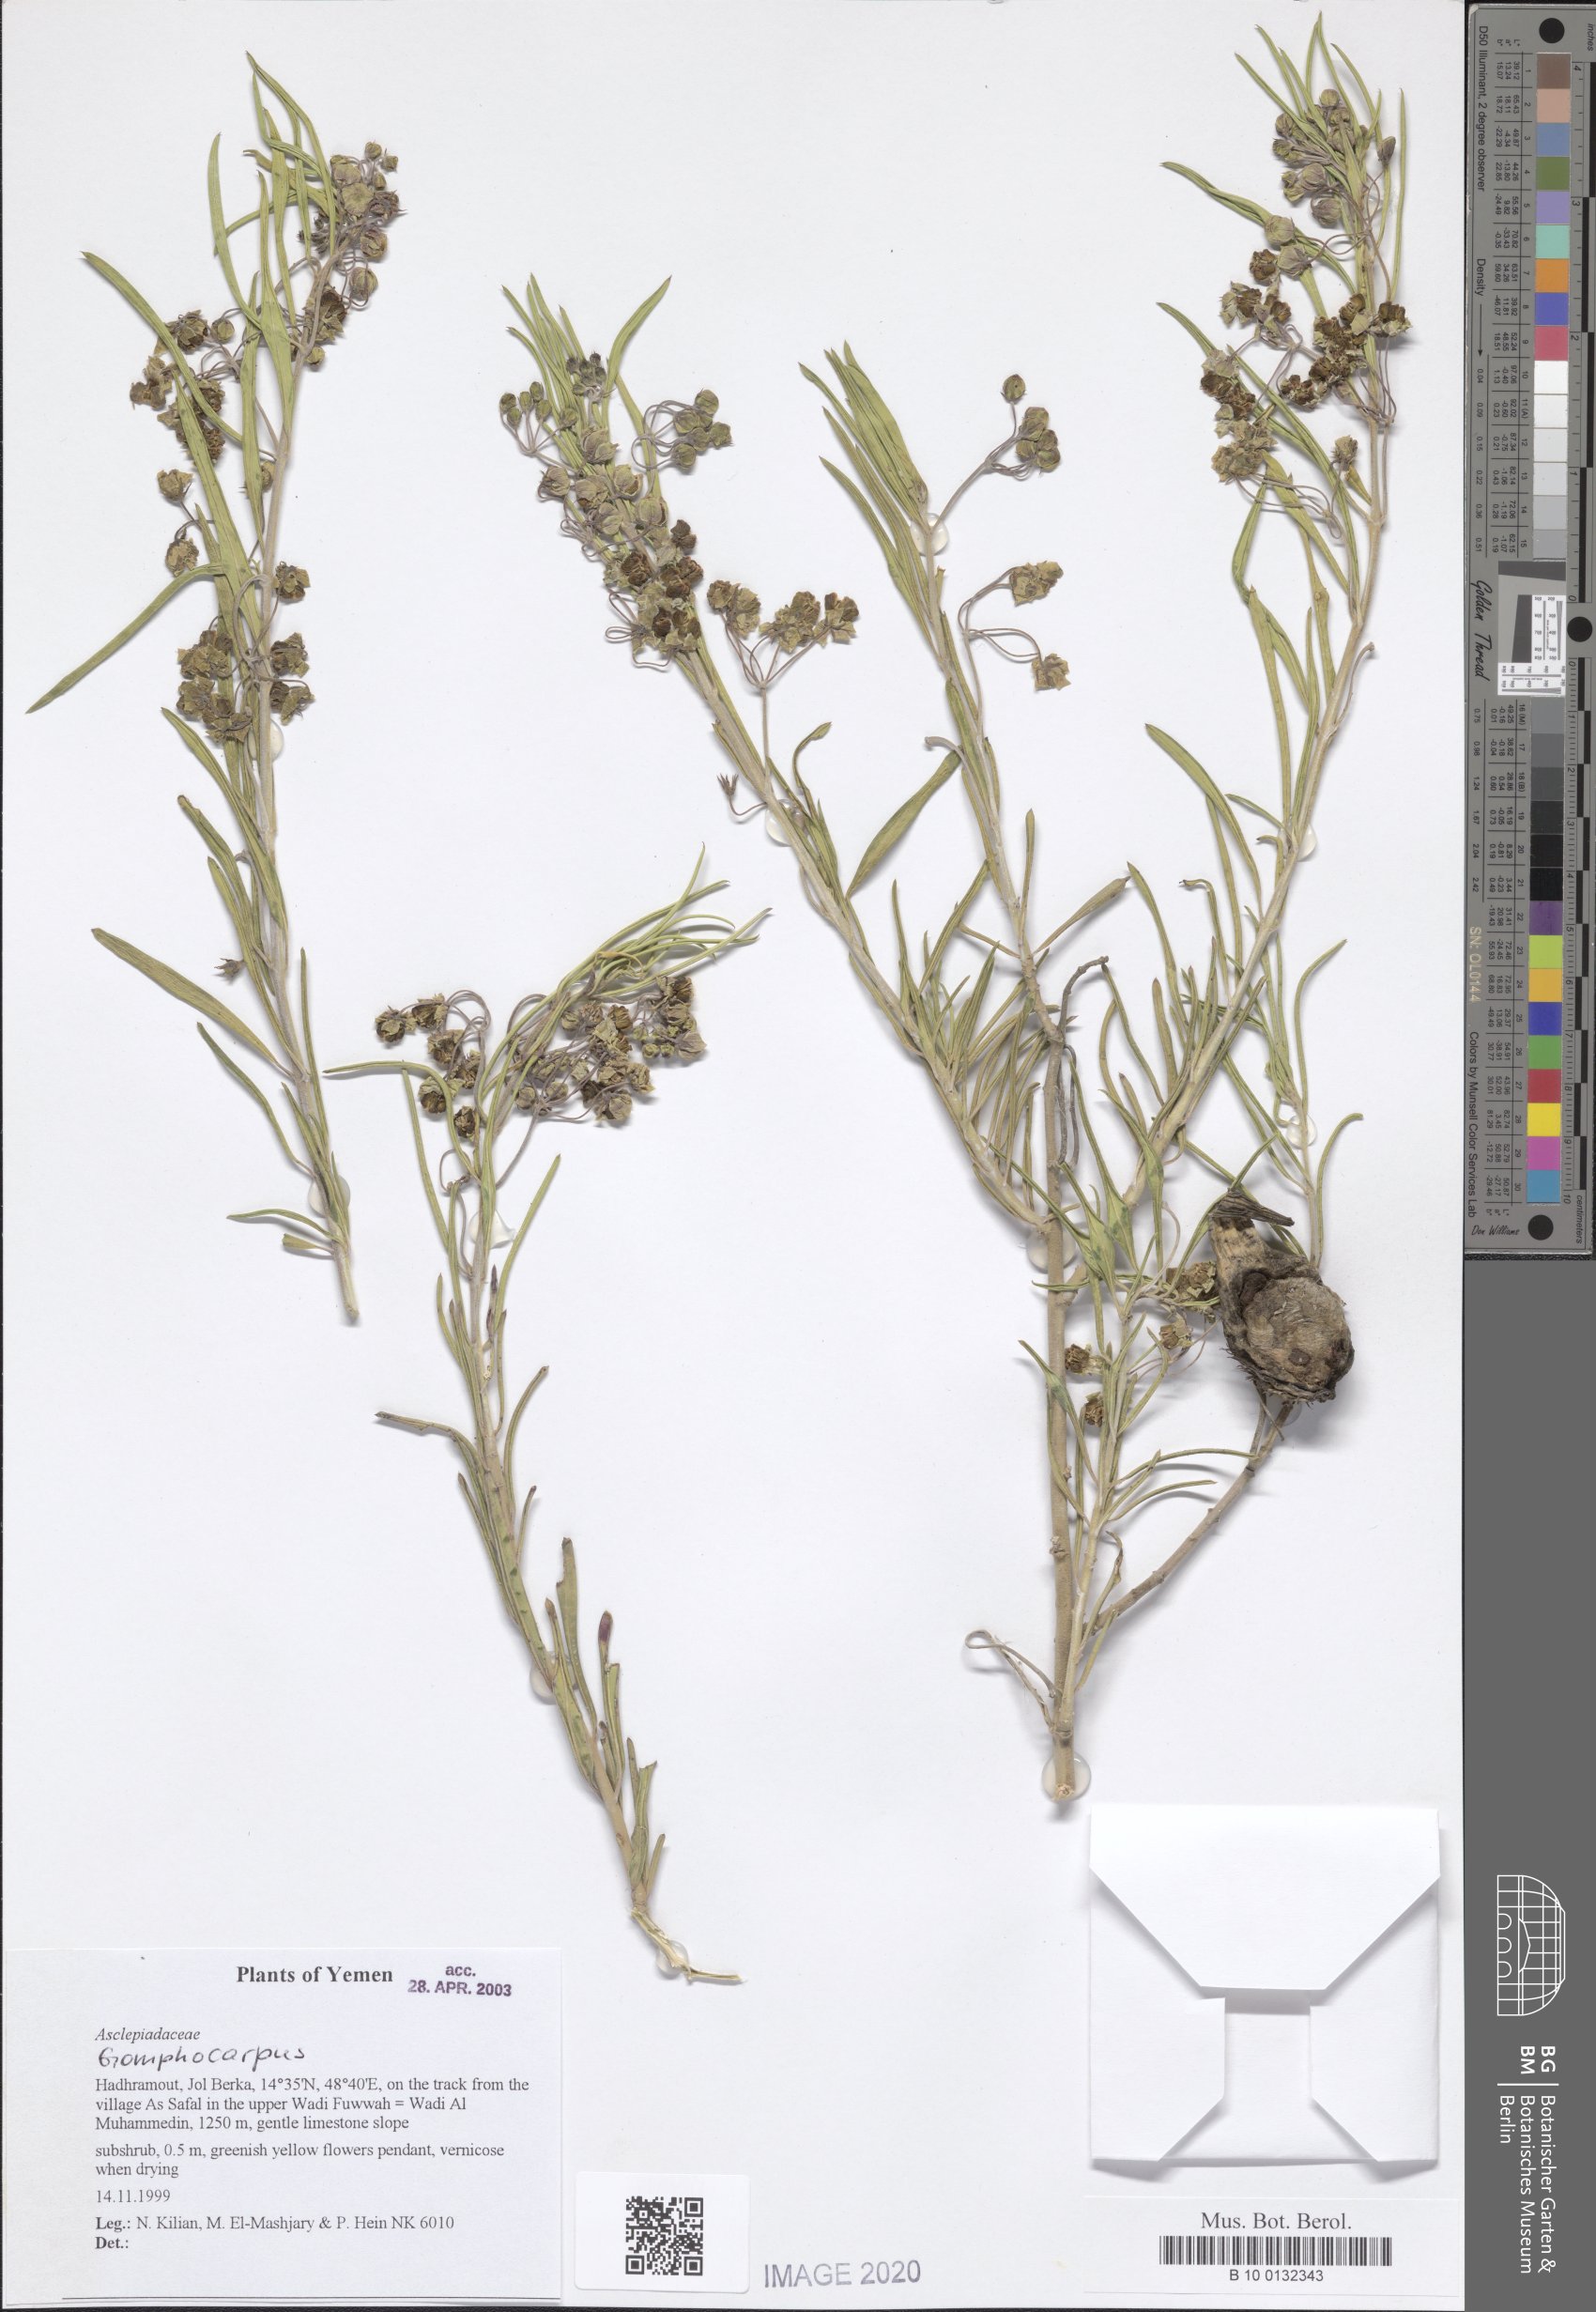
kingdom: Plantae
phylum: Tracheophyta
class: Magnoliopsida
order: Gentianales
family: Apocynaceae
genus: Gomphocarpus
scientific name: Gomphocarpus
